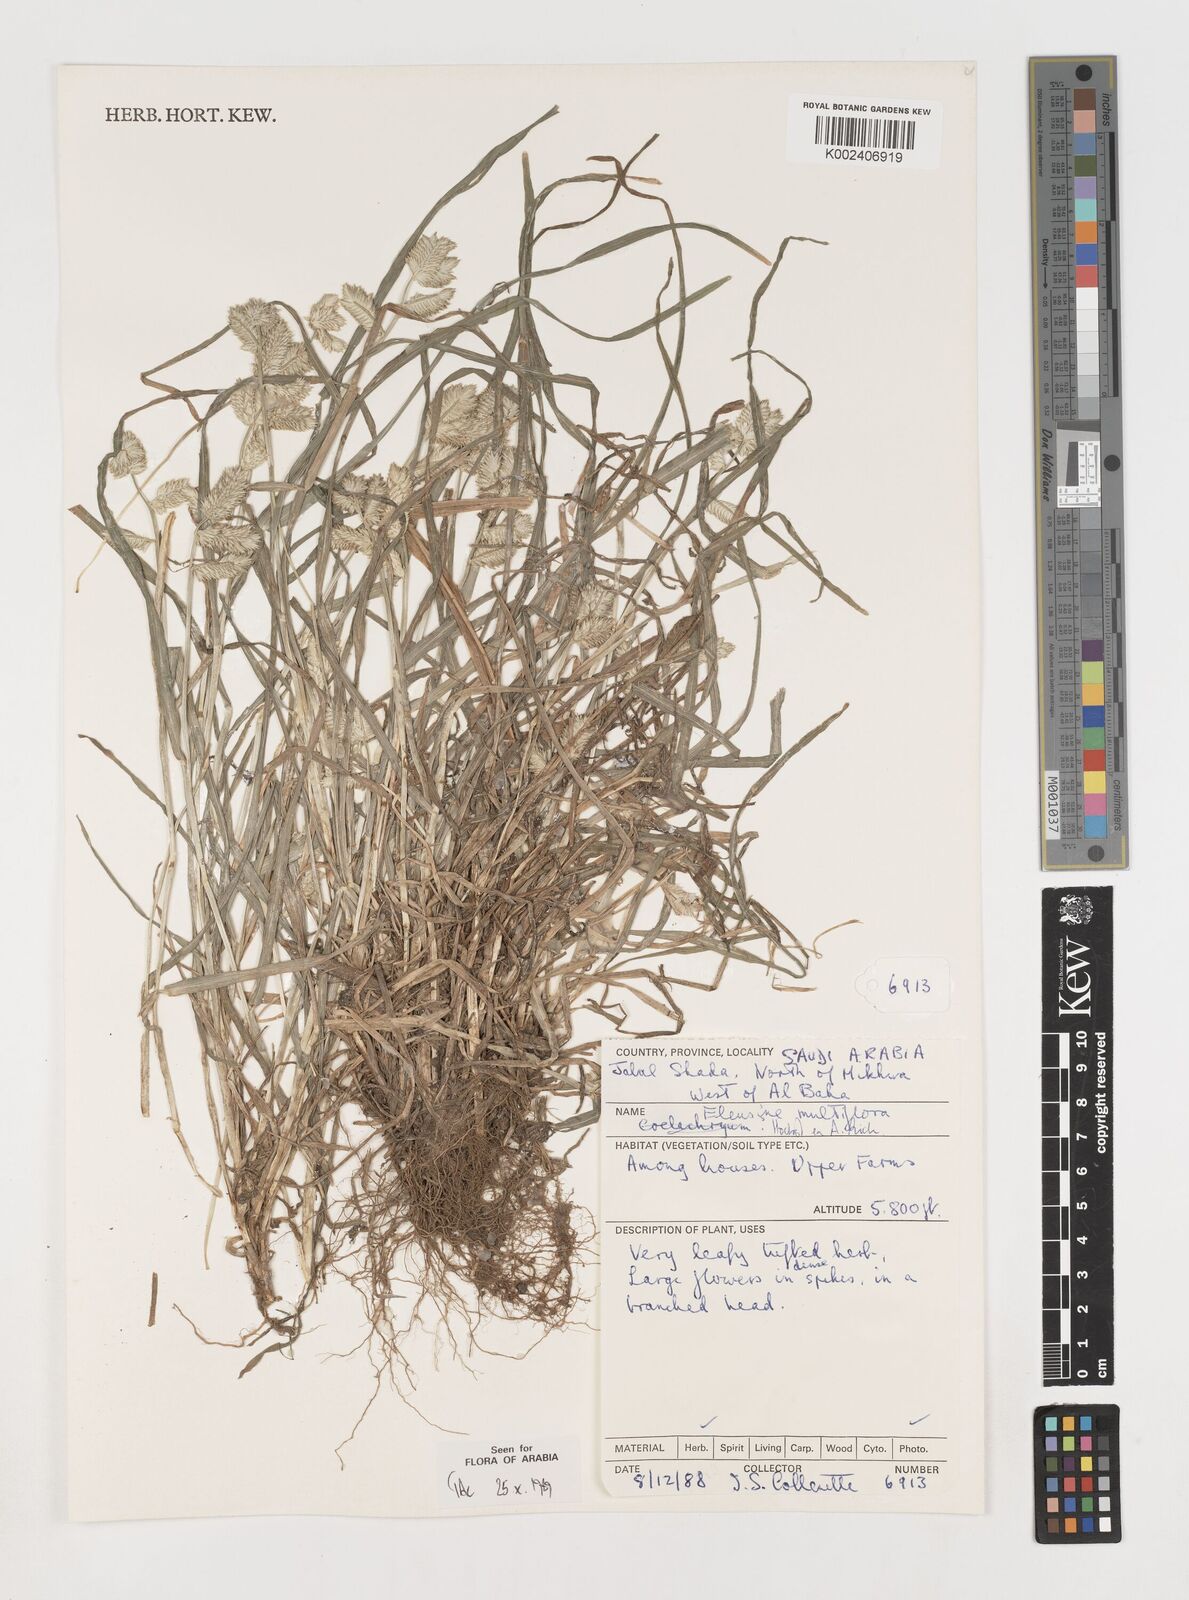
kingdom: Plantae
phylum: Tracheophyta
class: Liliopsida
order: Poales
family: Poaceae
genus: Eleusine
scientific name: Eleusine multiflora
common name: Fat-spiked yard-grass
